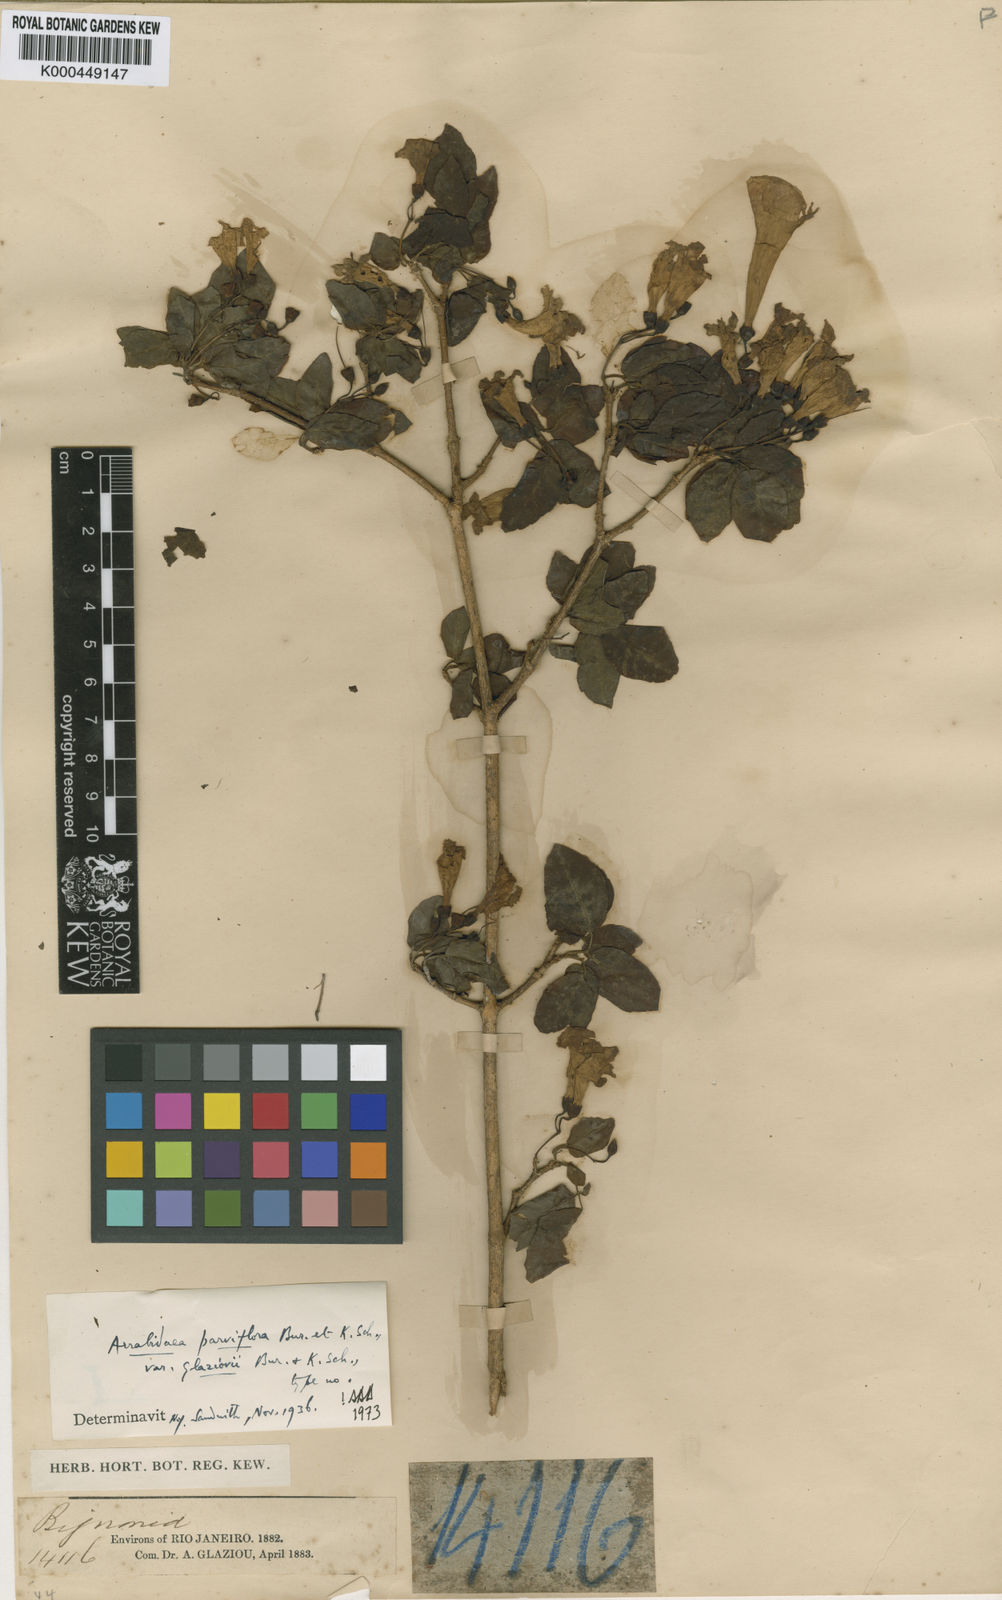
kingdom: Plantae
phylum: Tracheophyta
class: Magnoliopsida
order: Lamiales
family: Bignoniaceae
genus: Tanaecium
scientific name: Tanaecium pyramidatum
